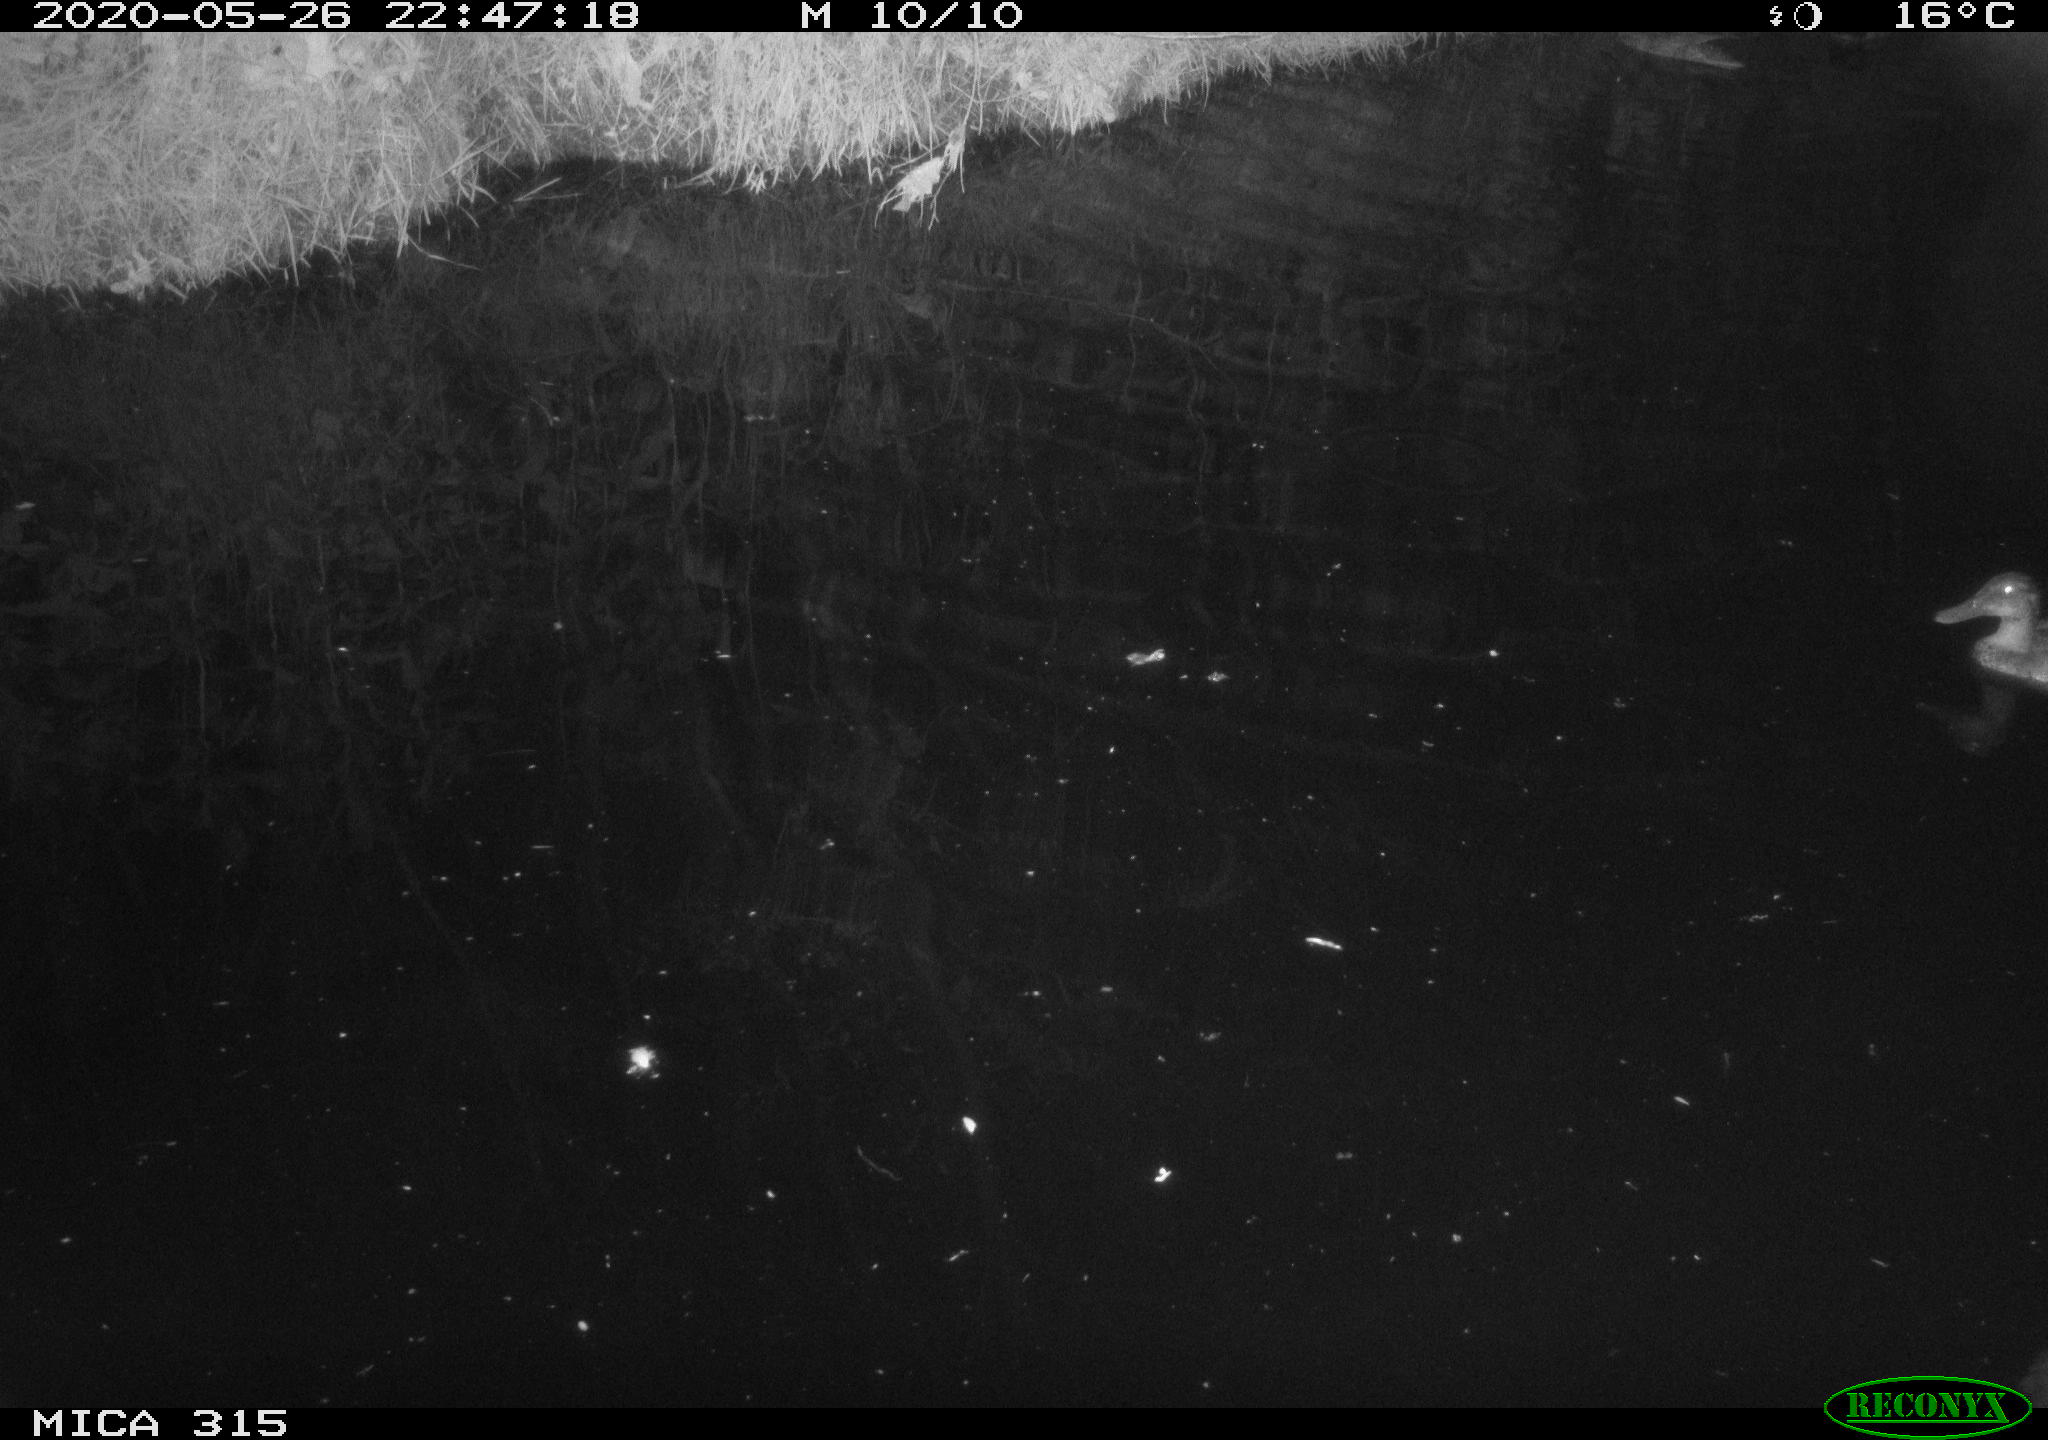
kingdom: Animalia
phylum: Chordata
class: Aves
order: Anseriformes
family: Anatidae
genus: Anas
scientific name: Anas platyrhynchos
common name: Mallard
